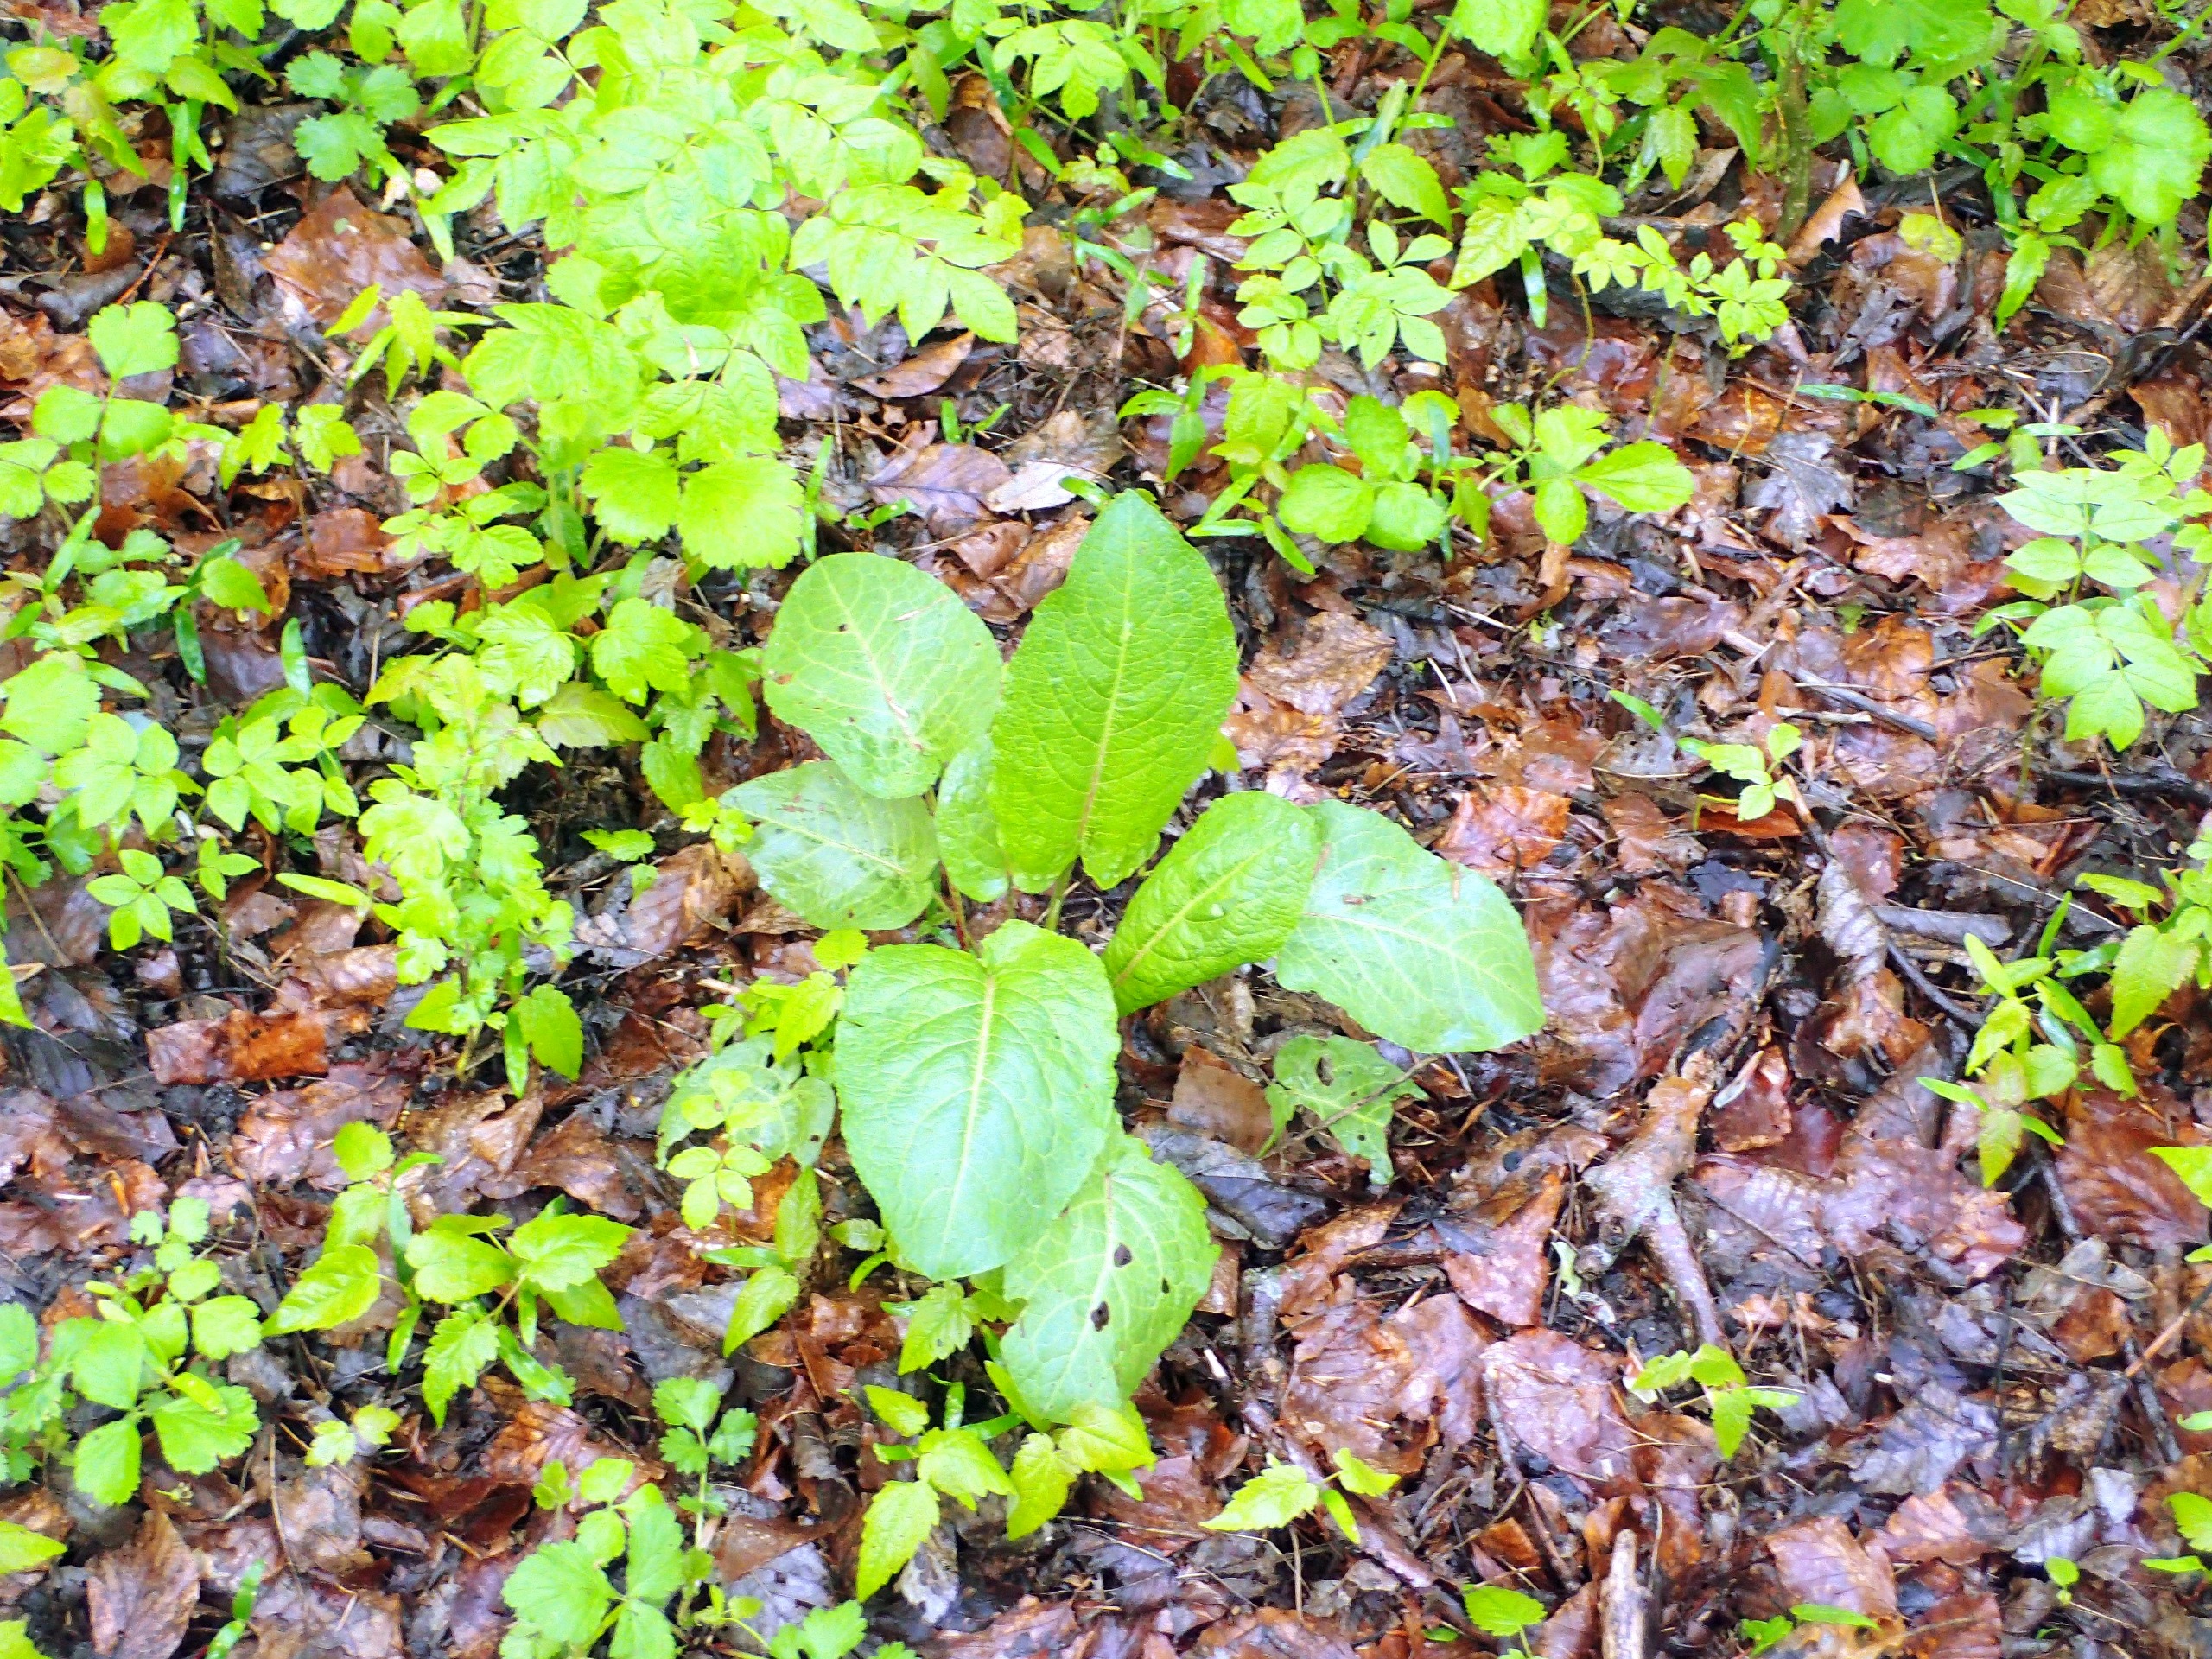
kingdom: Plantae
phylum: Tracheophyta
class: Magnoliopsida
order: Caryophyllales
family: Polygonaceae
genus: Rumex
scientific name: Rumex obtusifolius
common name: Butbladet skræppe
